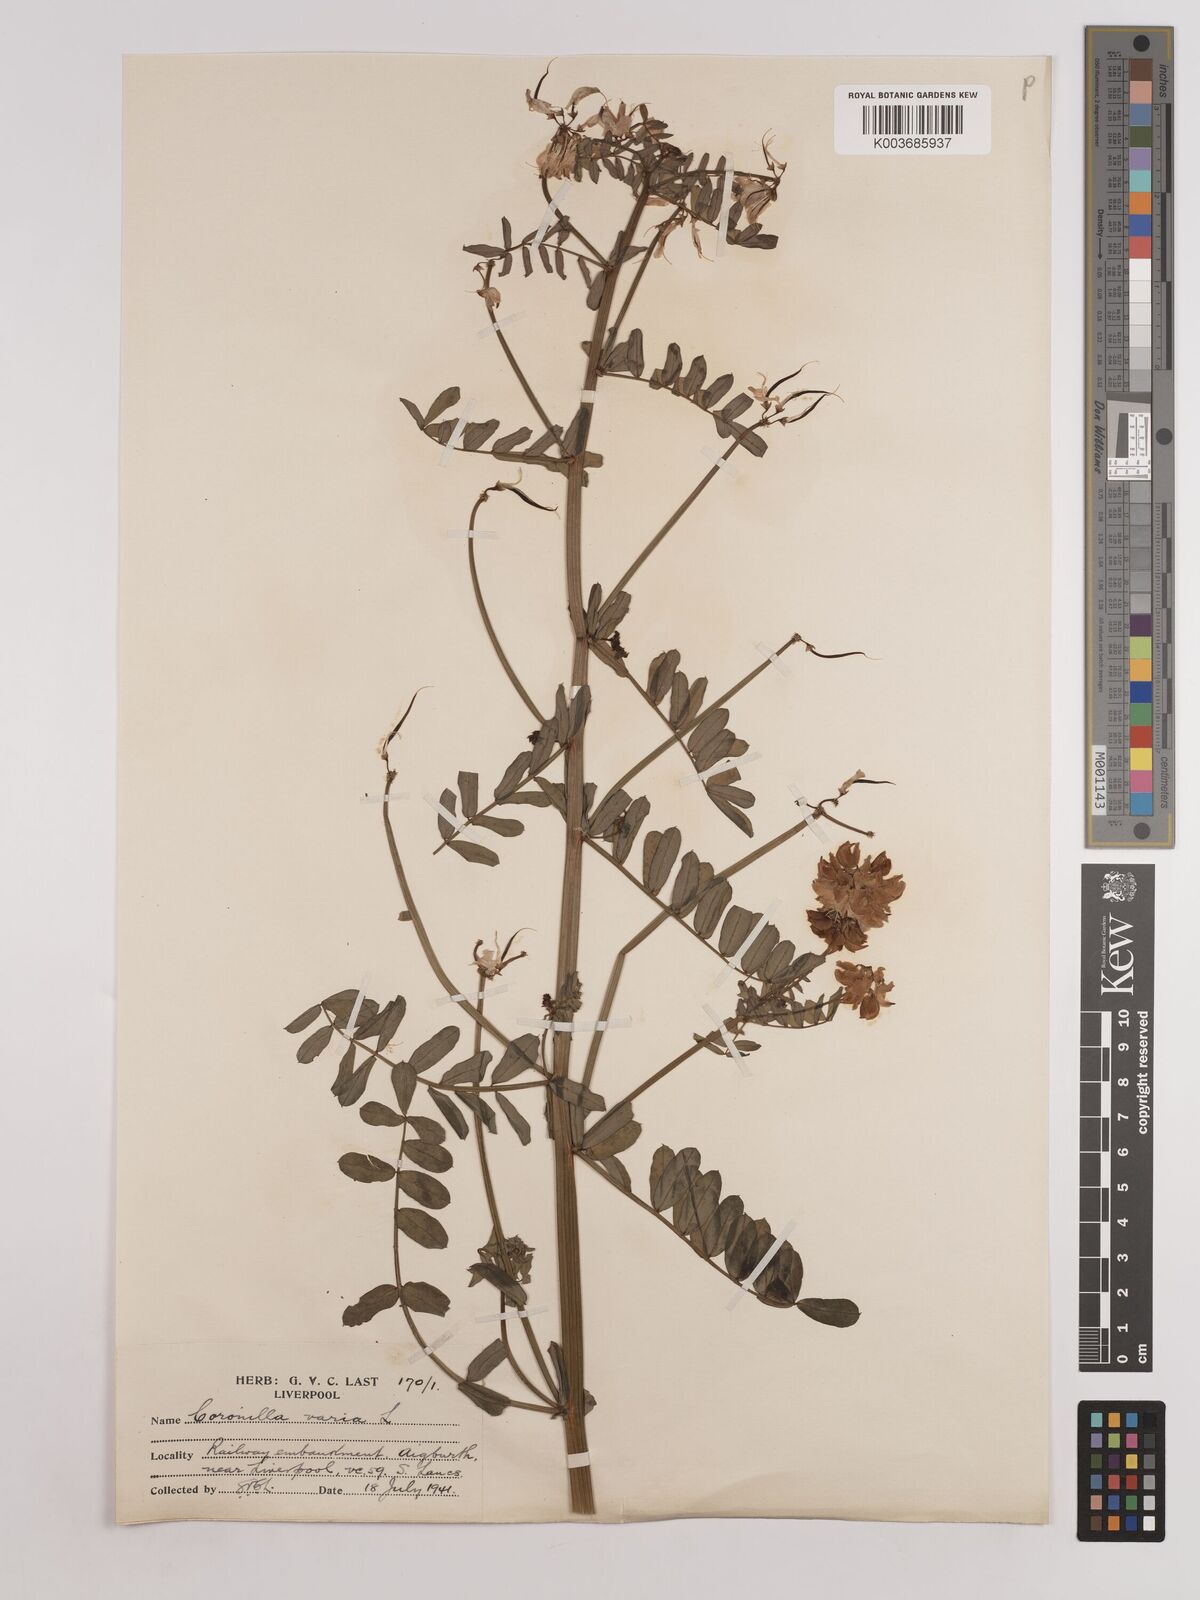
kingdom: Plantae
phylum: Tracheophyta
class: Magnoliopsida
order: Fabales
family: Fabaceae
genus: Coronilla
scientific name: Coronilla varia
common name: Crownvetch
